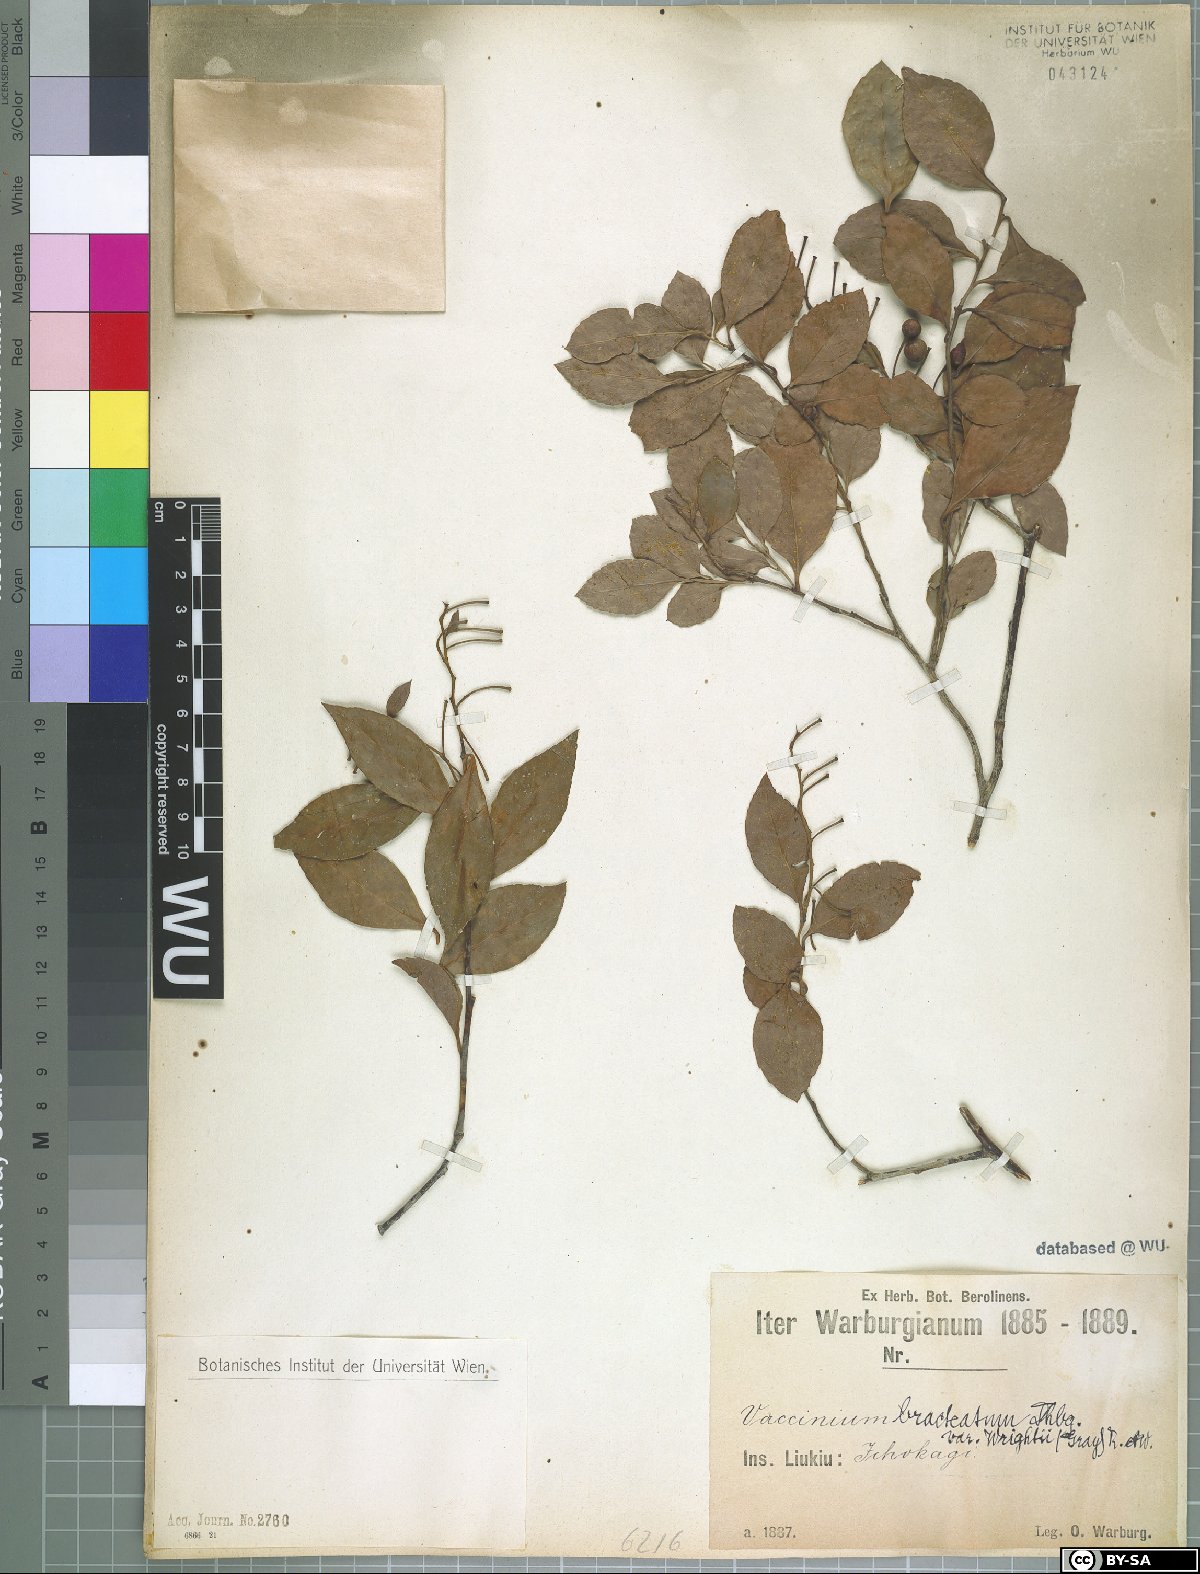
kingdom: Plantae
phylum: Tracheophyta
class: Magnoliopsida
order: Ericales
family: Ericaceae
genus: Vaccinium
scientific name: Vaccinium wrightii
